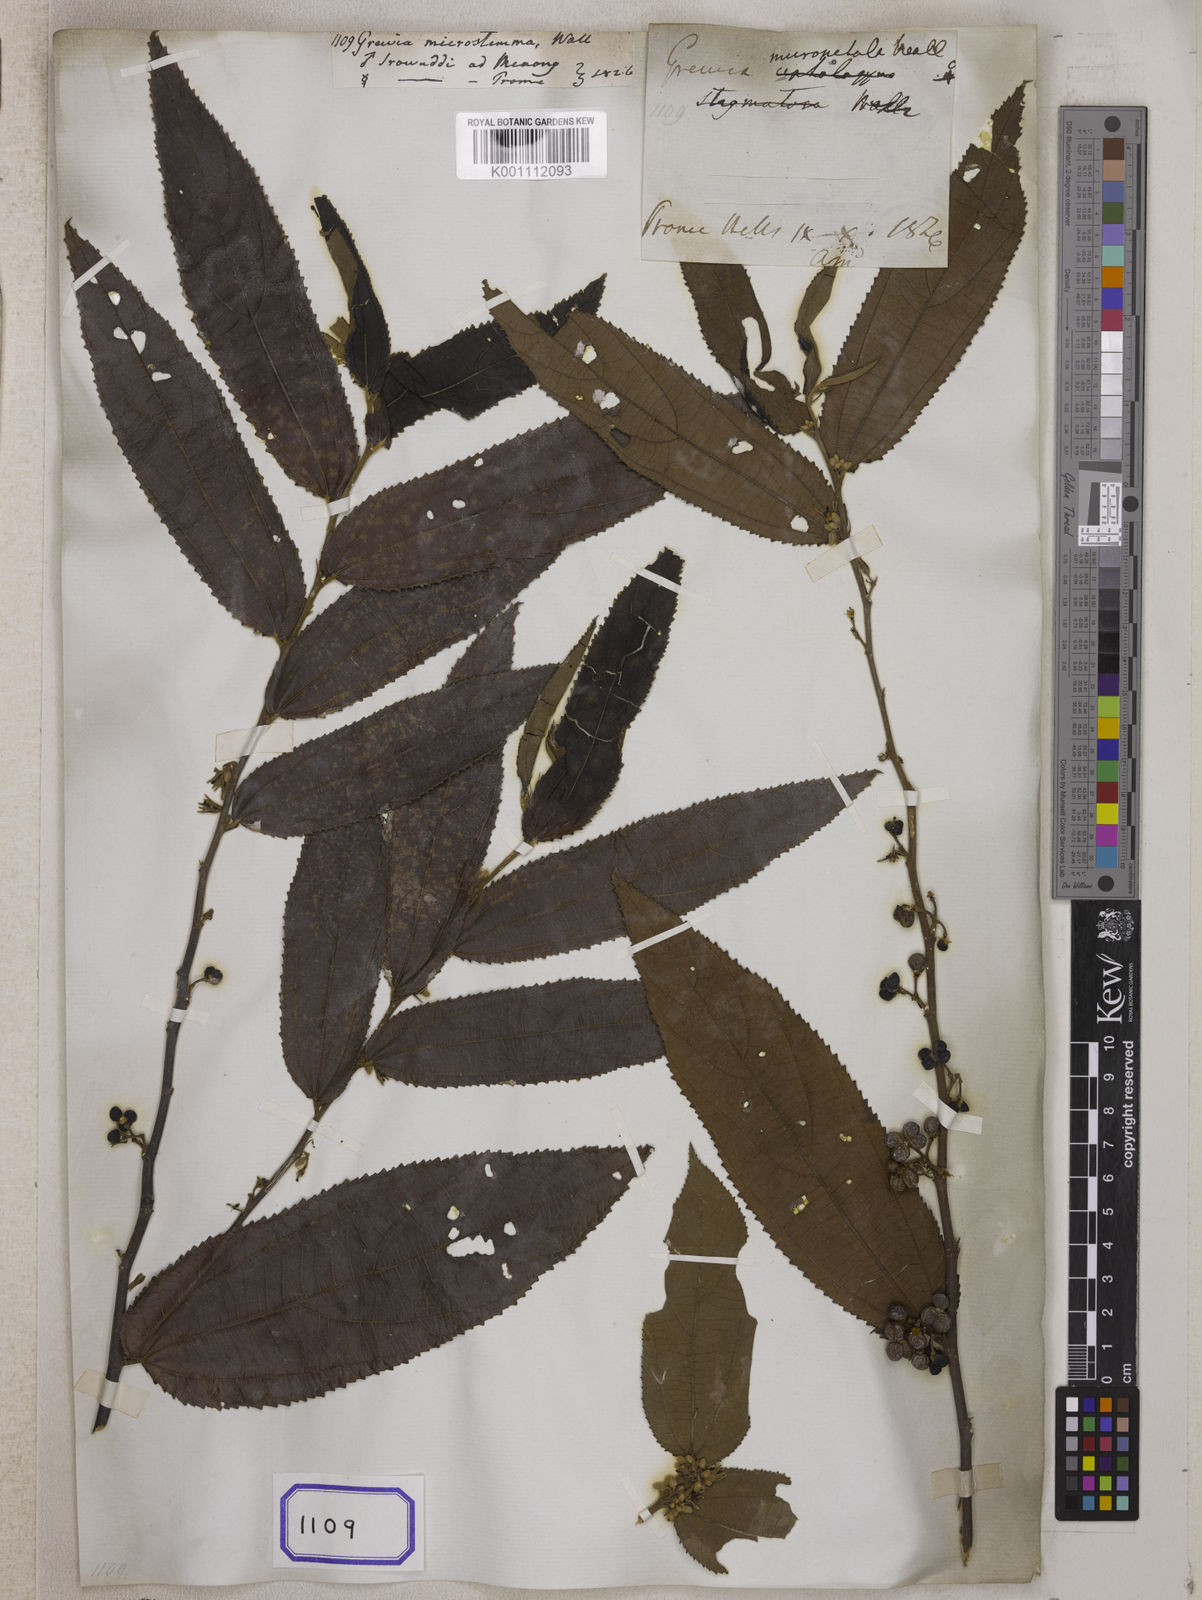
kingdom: Plantae
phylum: Tracheophyta
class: Magnoliopsida
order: Malvales
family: Malvaceae
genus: Grewia
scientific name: Grewia
